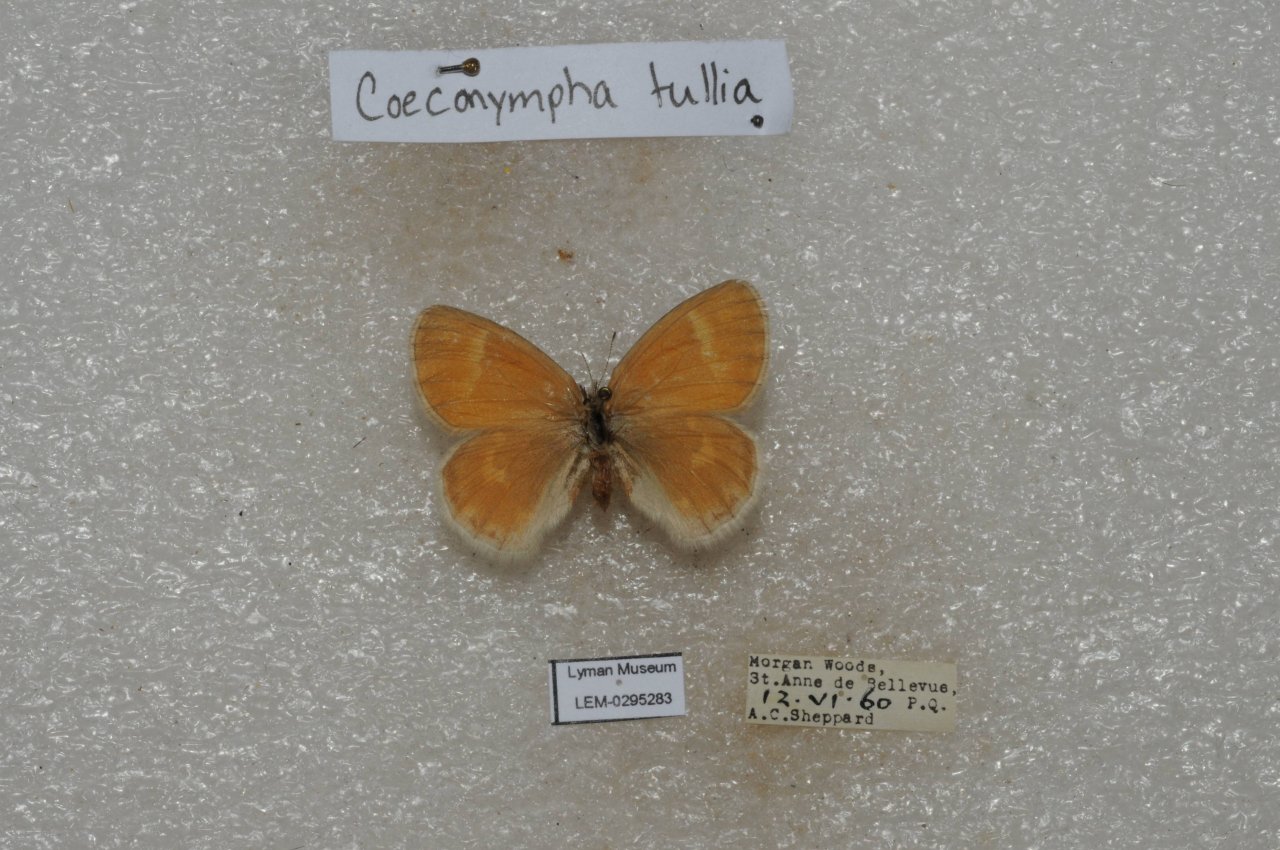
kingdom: Animalia
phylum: Arthropoda
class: Insecta
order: Lepidoptera
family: Nymphalidae
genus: Coenonympha
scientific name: Coenonympha tullia
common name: Large Heath
